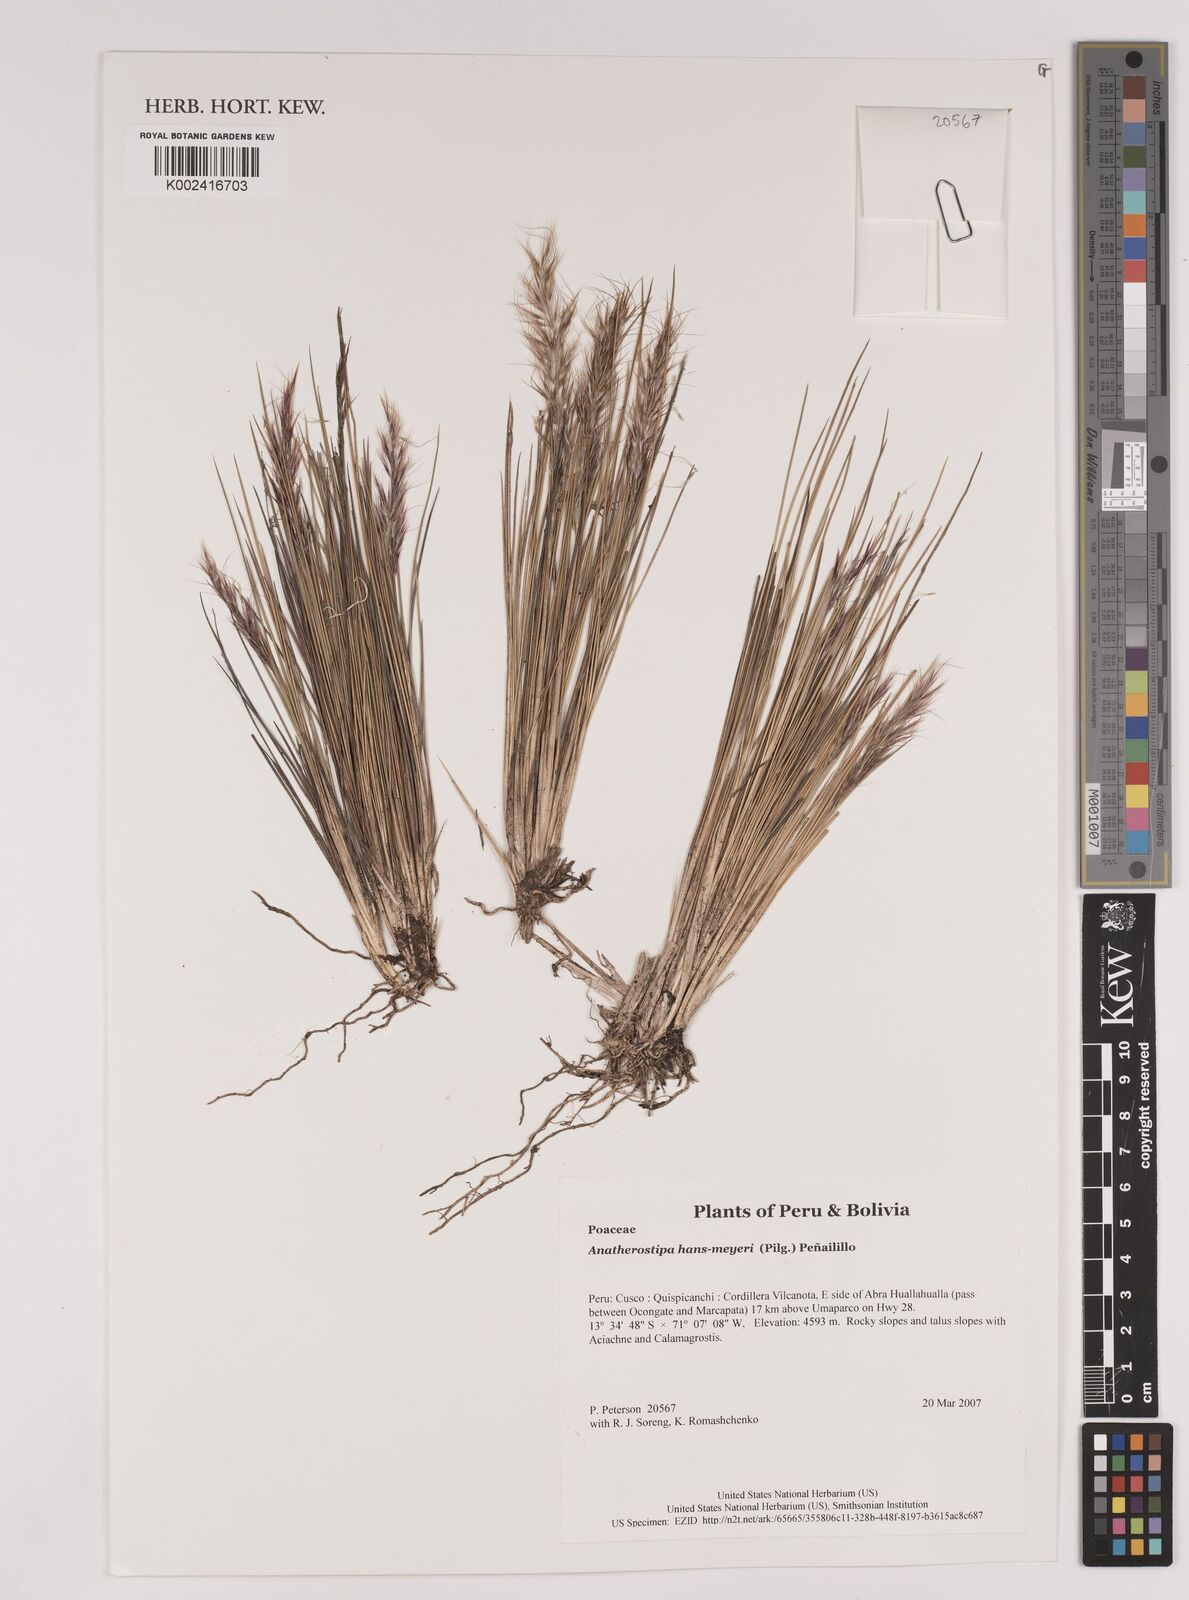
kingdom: Plantae
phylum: Tracheophyta
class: Liliopsida
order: Poales
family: Poaceae
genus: Stipa
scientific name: Stipa hans-meyeri
